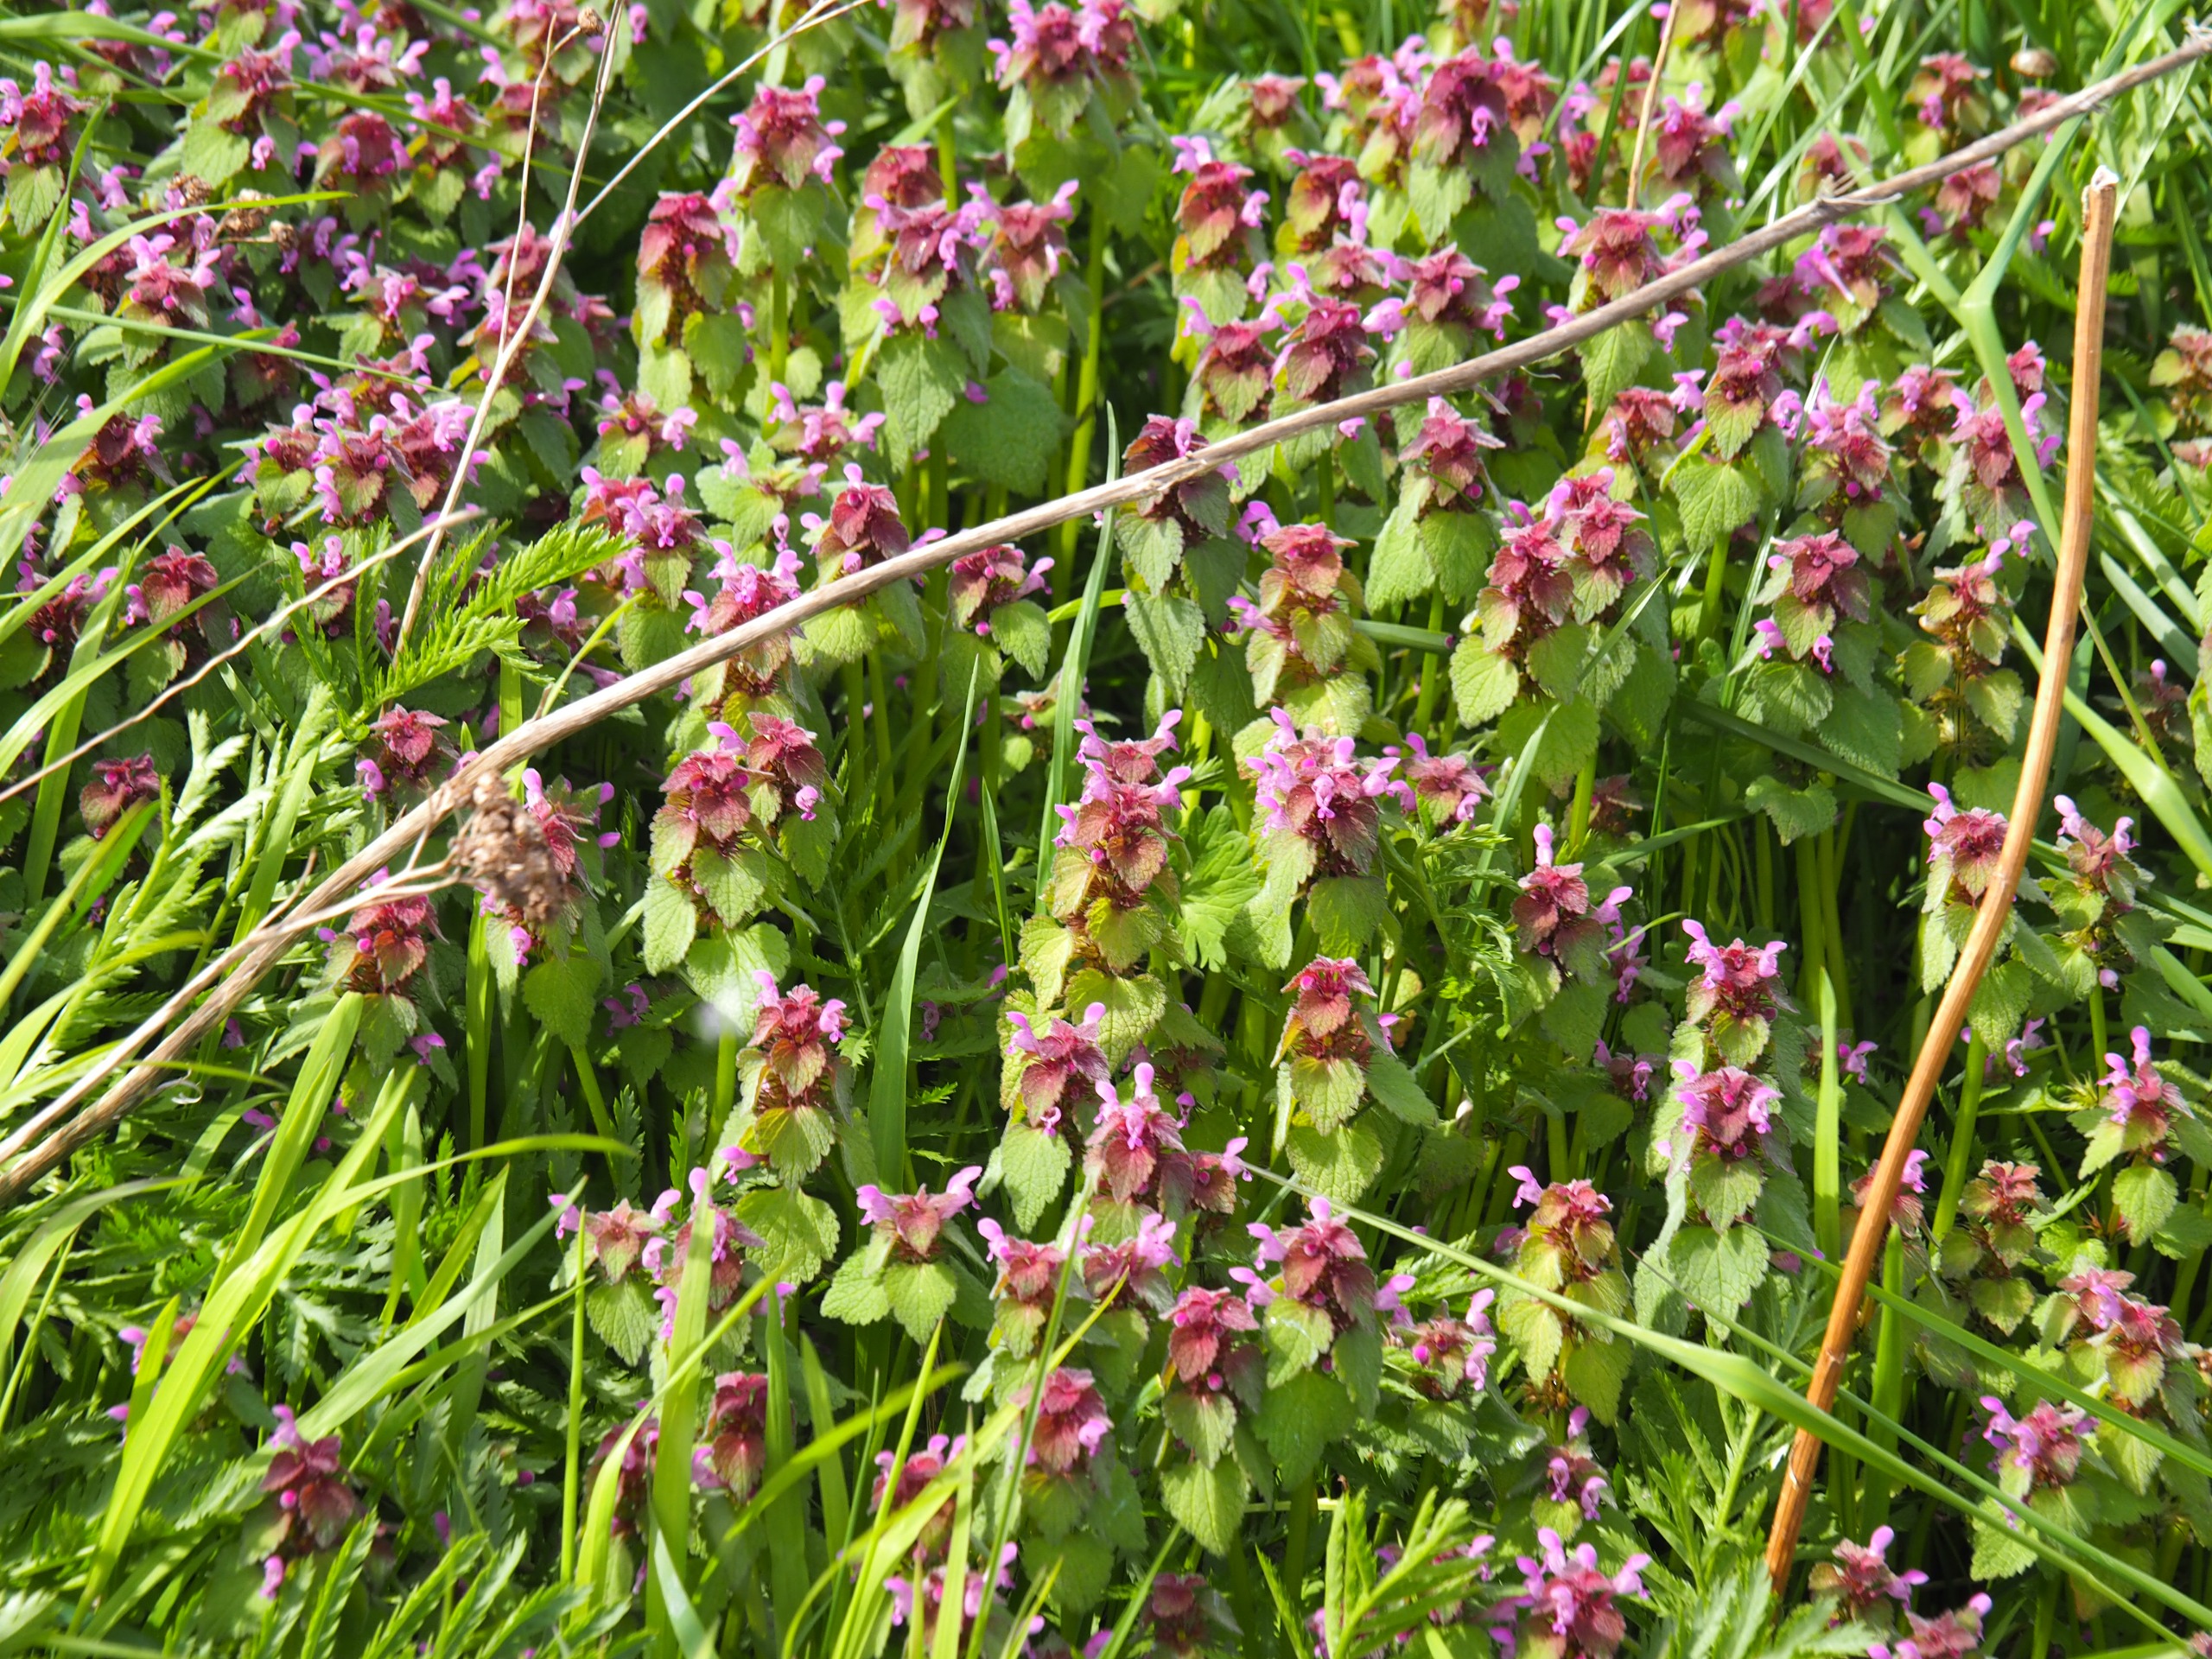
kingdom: Plantae
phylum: Tracheophyta
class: Magnoliopsida
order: Lamiales
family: Lamiaceae
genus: Lamium
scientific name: Lamium purpureum
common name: Rød tvetand
